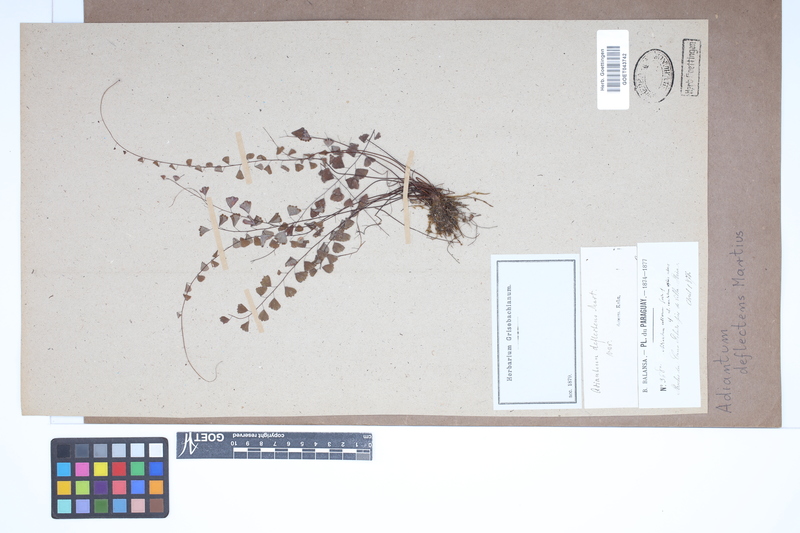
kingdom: Plantae
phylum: Tracheophyta
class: Polypodiopsida
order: Polypodiales
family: Pteridaceae
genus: Adiantum
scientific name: Adiantum deflectens
